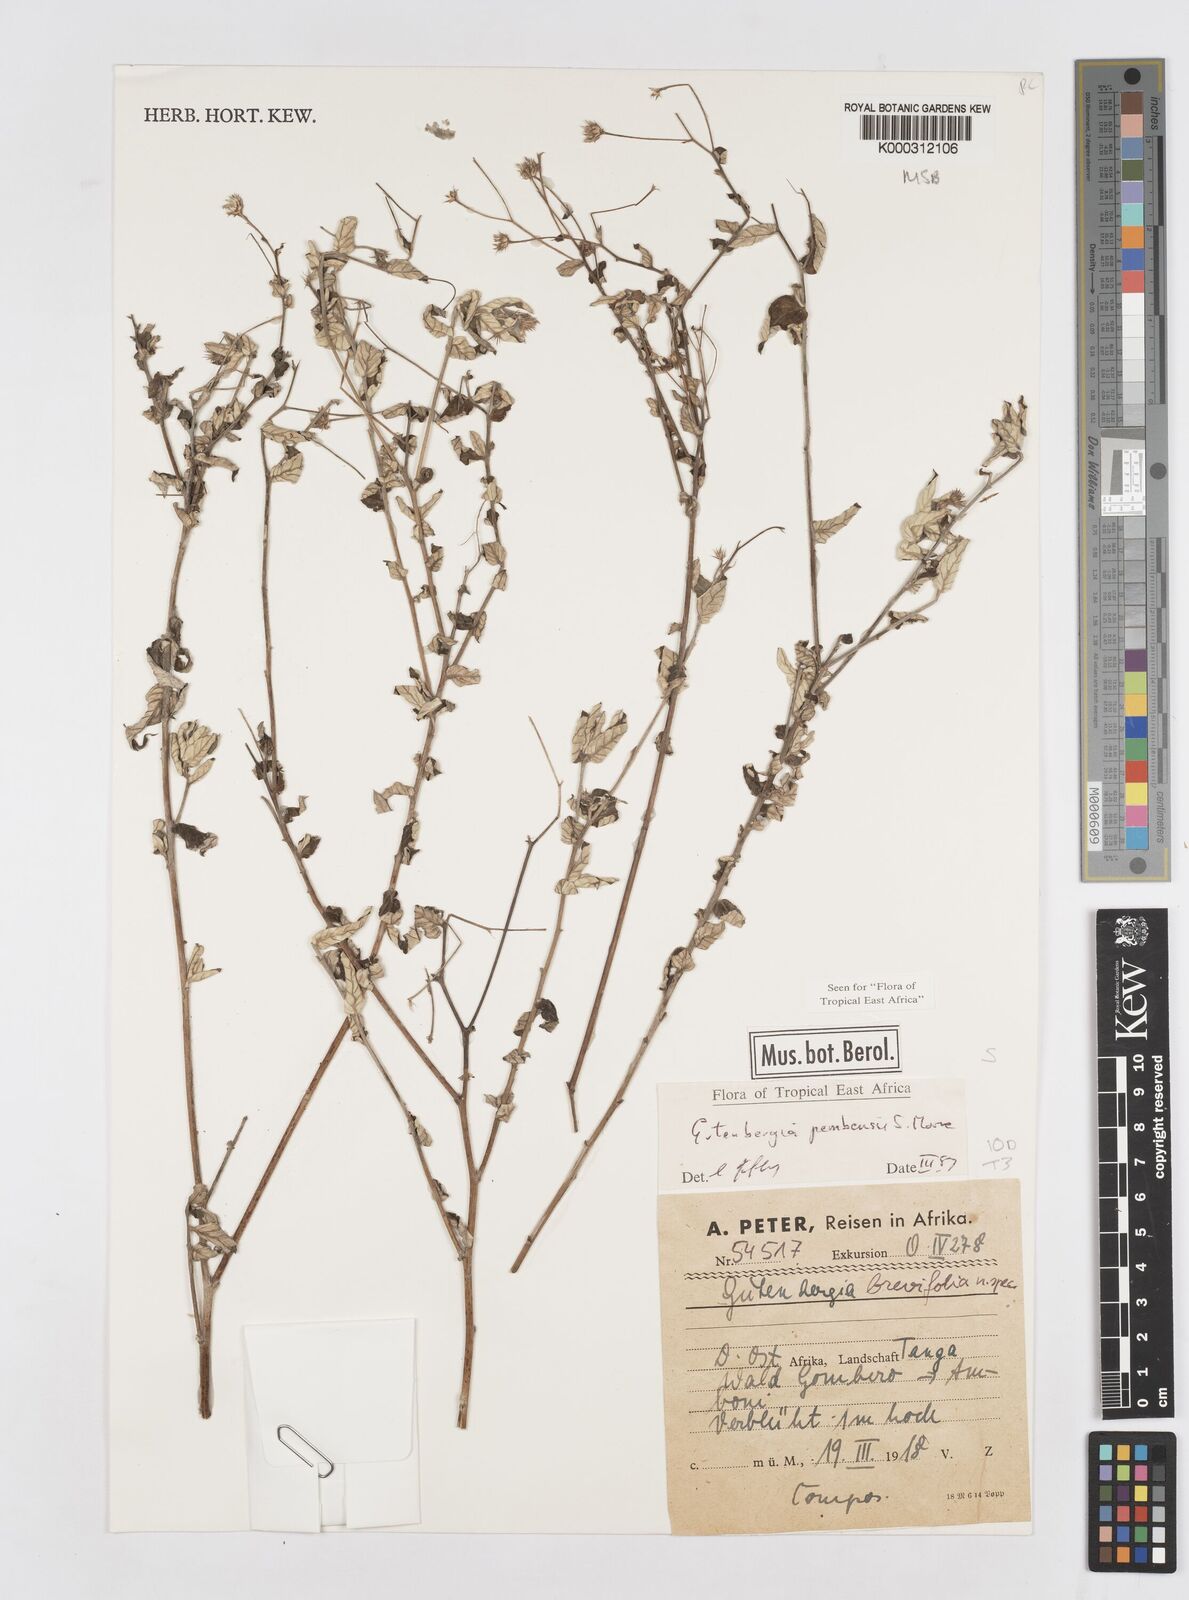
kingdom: Plantae
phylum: Tracheophyta
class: Magnoliopsida
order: Asterales
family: Asteraceae
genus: Gutenbergia
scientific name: Gutenbergia pembensis
